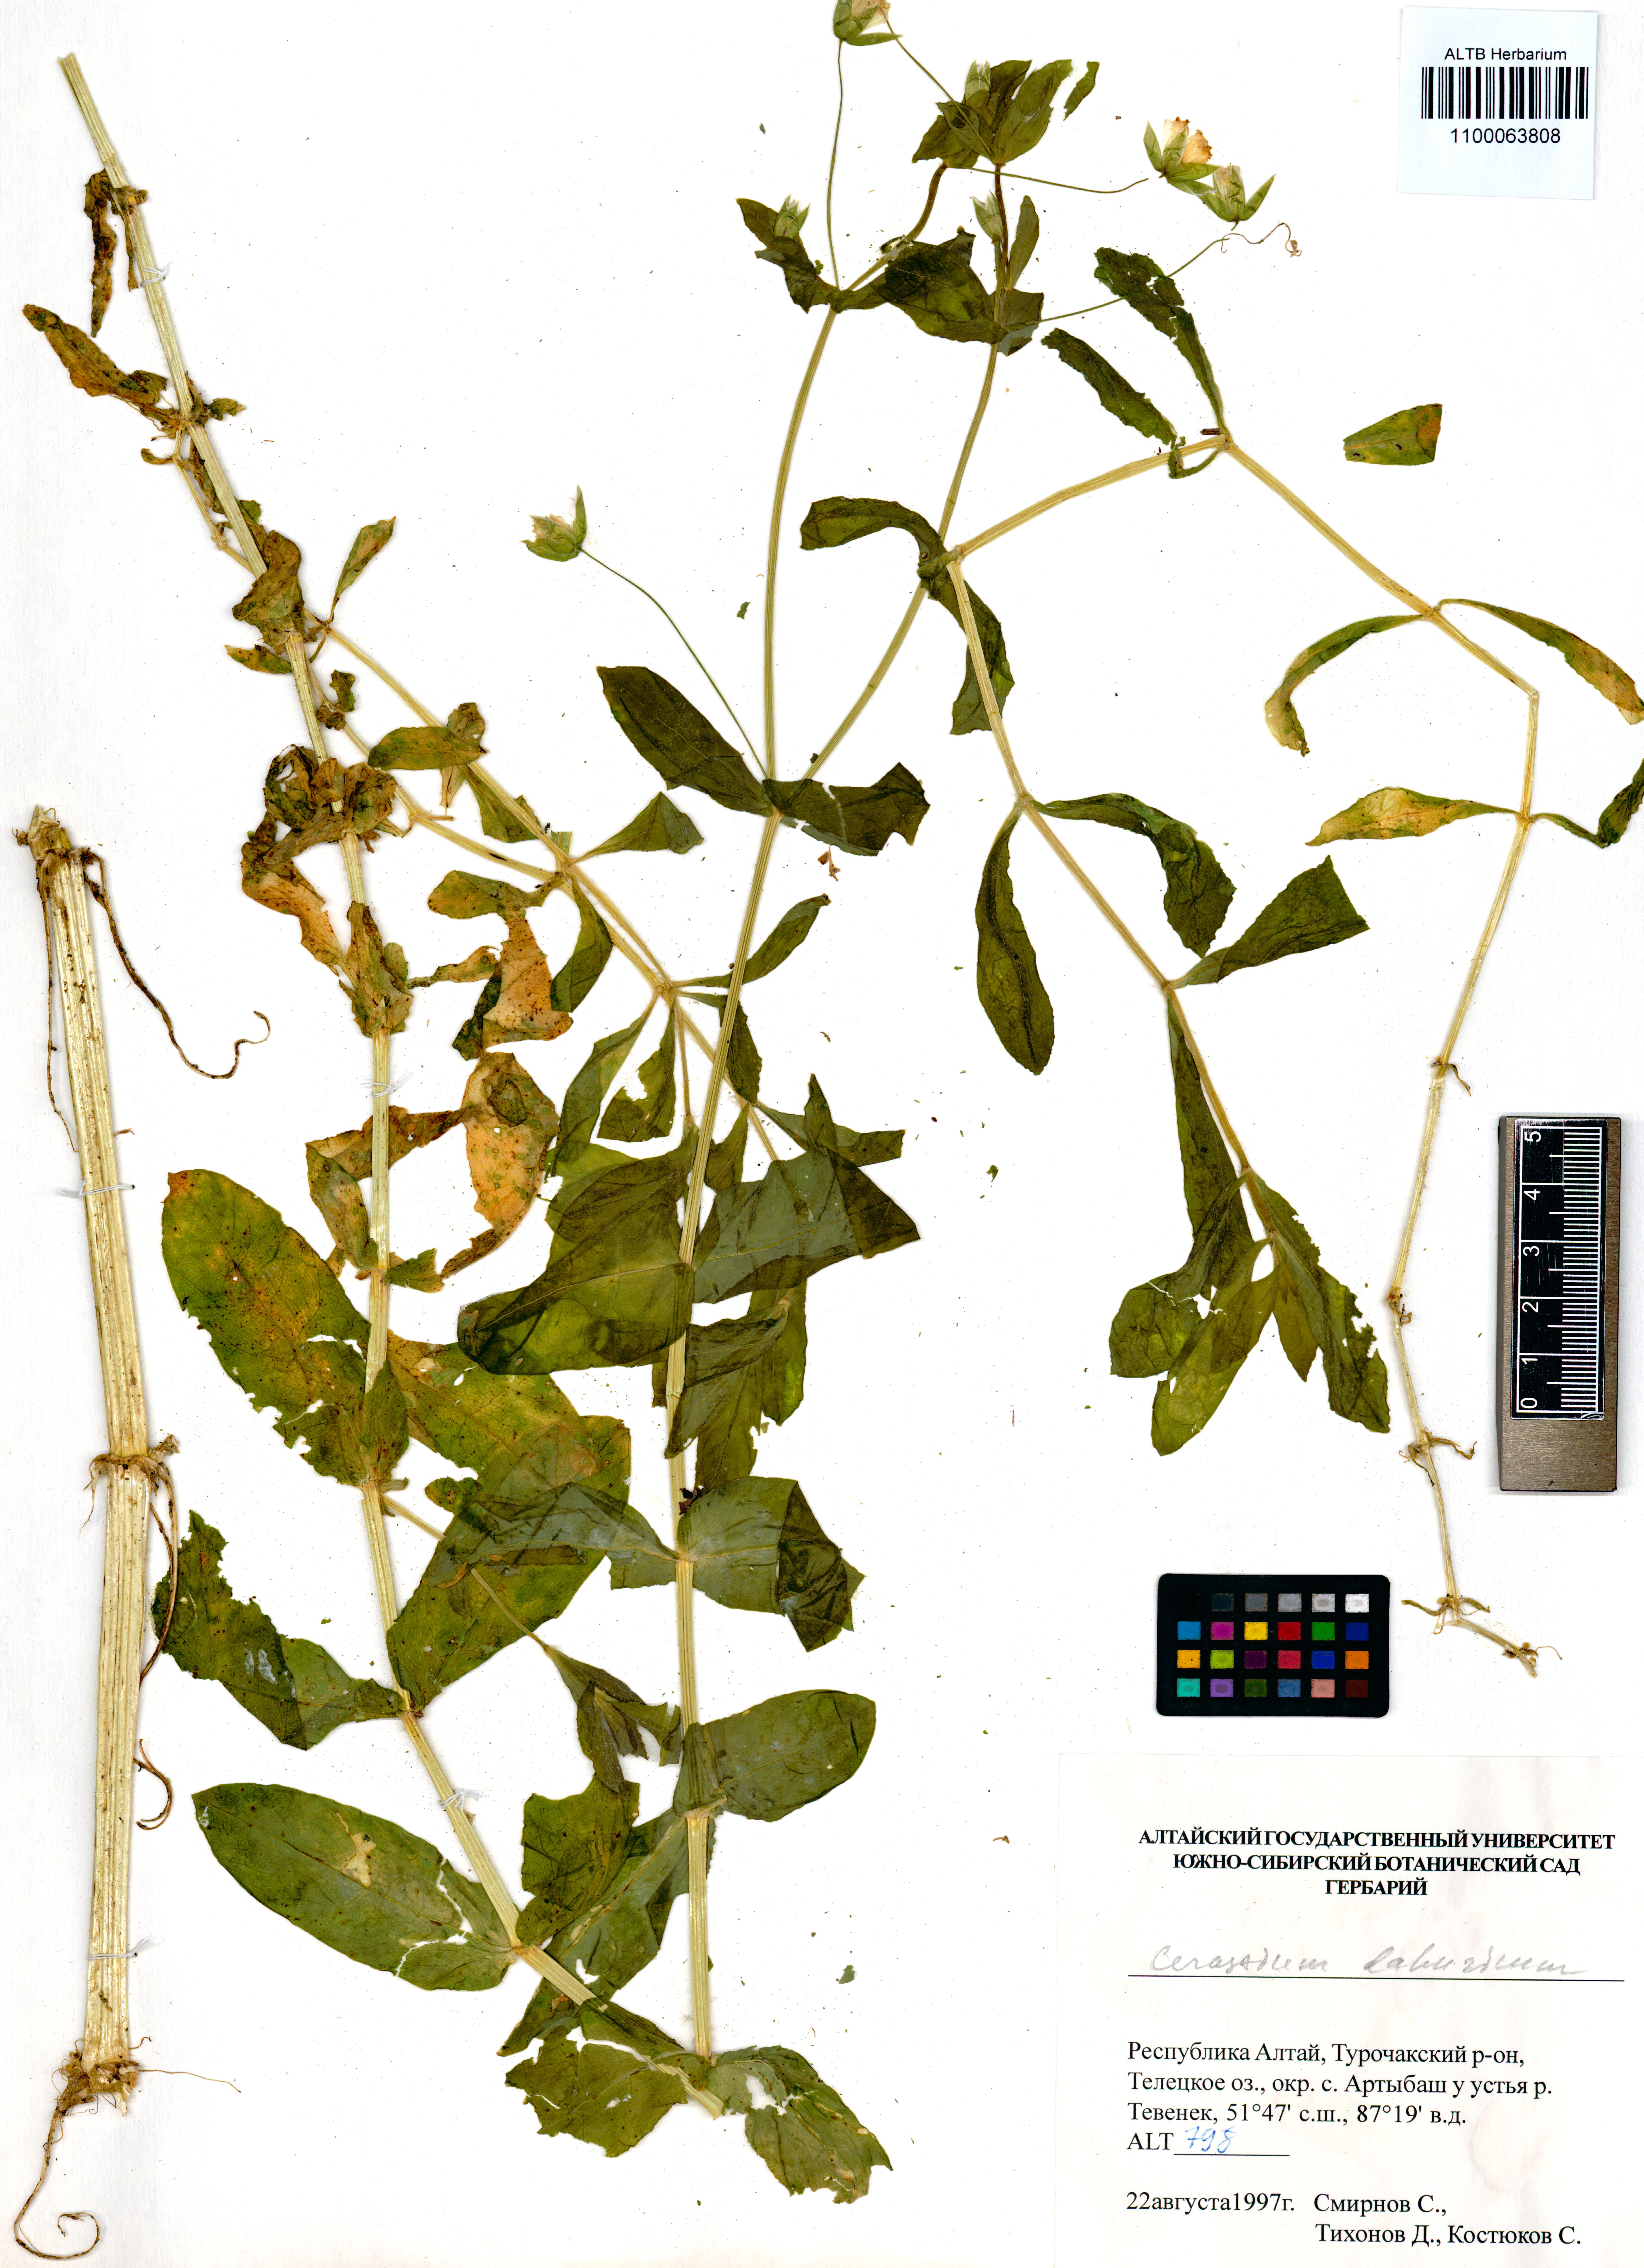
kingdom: Plantae
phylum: Tracheophyta
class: Magnoliopsida
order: Caryophyllales
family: Caryophyllaceae
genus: Dichodon
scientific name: Dichodon davuricum
